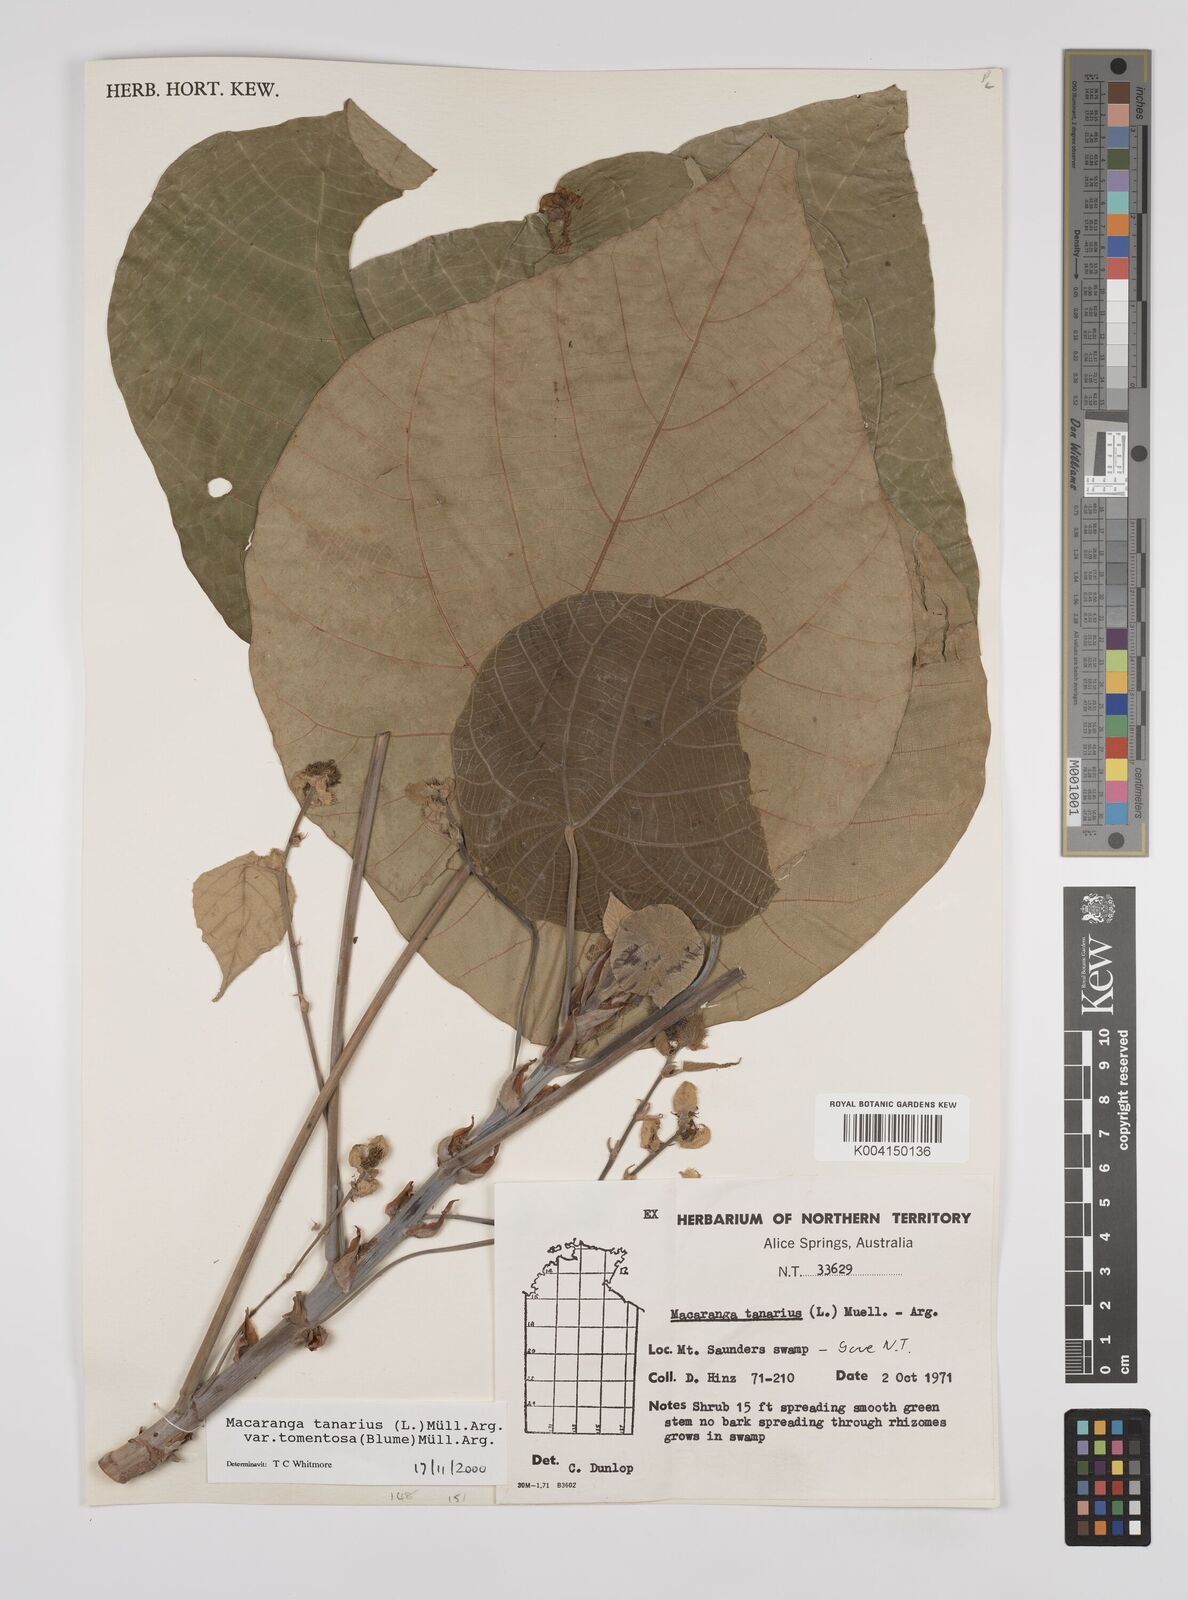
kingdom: Plantae
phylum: Tracheophyta
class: Magnoliopsida
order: Malpighiales
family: Euphorbiaceae
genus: Macaranga
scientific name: Macaranga tanarius
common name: Parasol leaf tree
